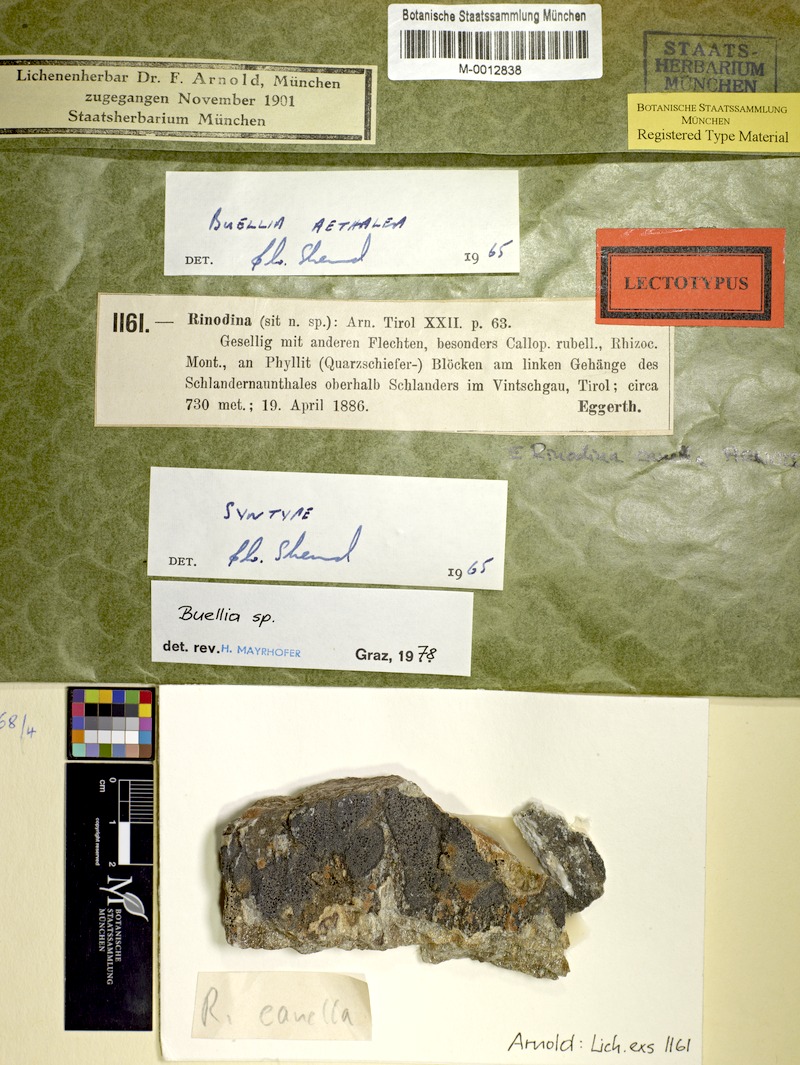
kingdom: Fungi
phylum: Ascomycota
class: Lecanoromycetes
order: Caliciales
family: Caliciaceae
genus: Buellia
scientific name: Buellia aethalea
